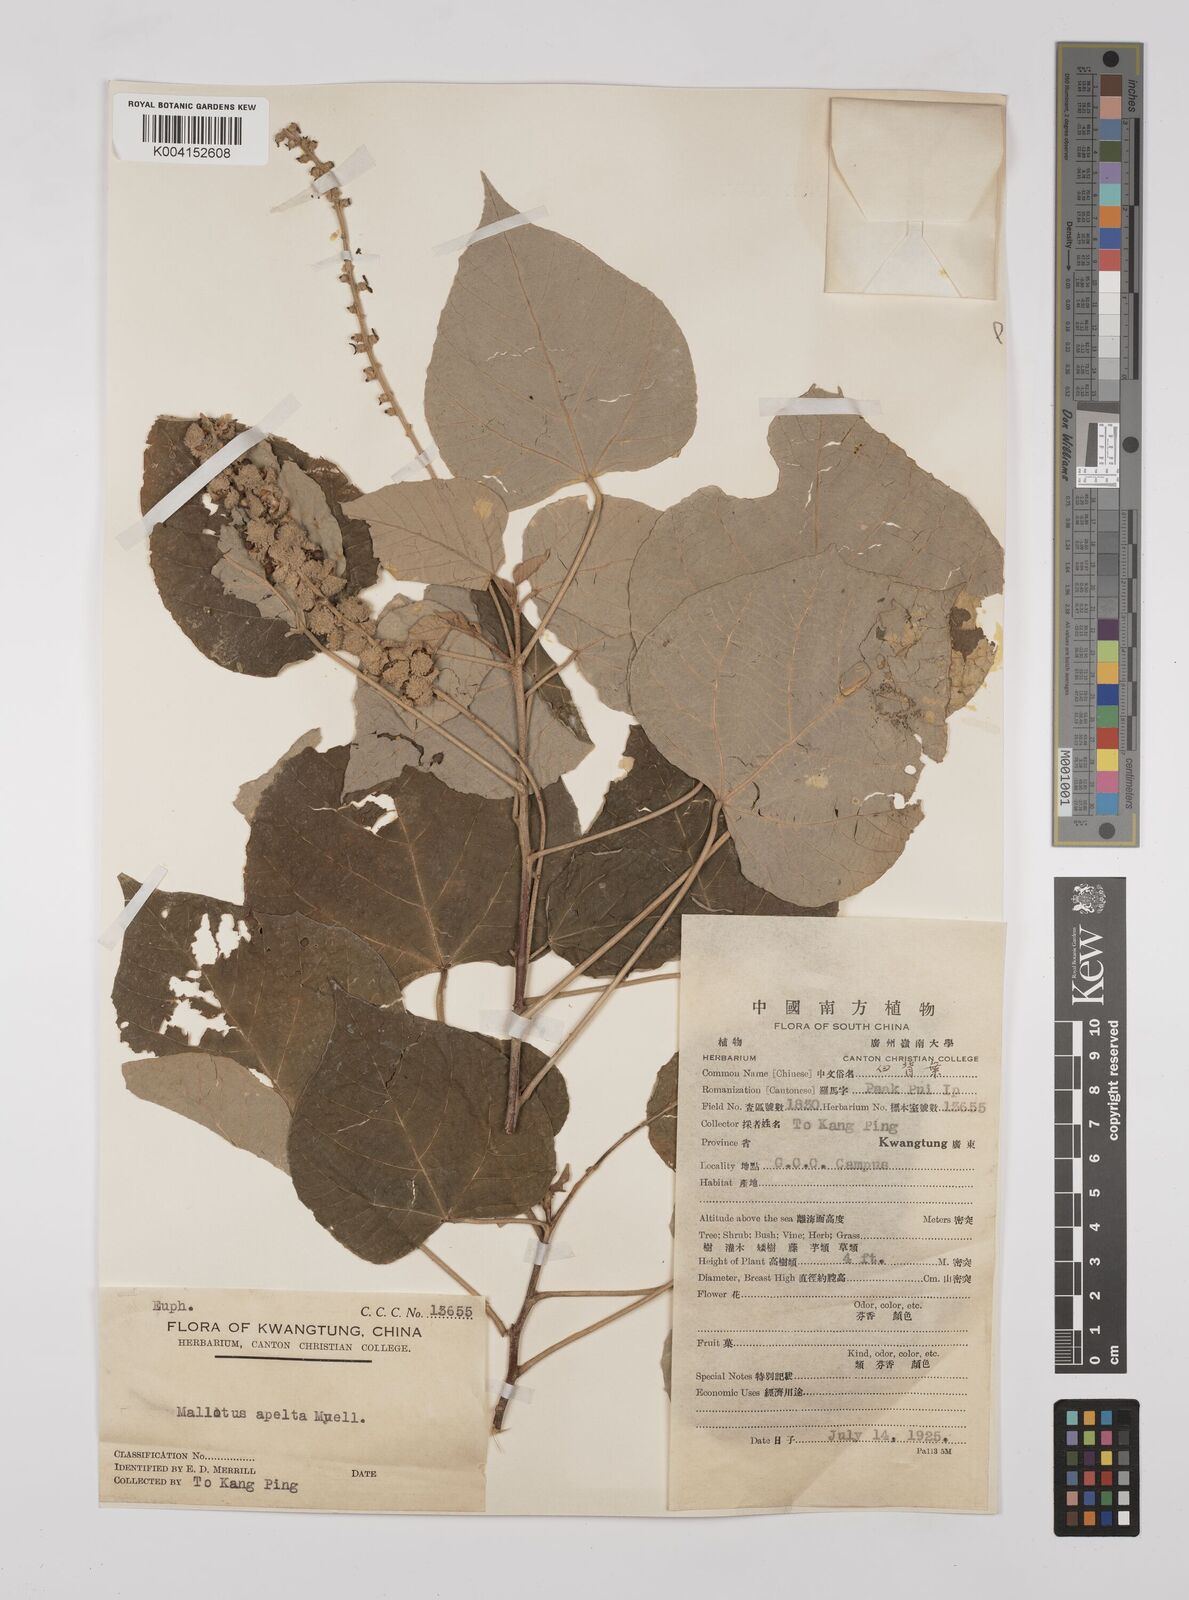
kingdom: Plantae
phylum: Tracheophyta
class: Magnoliopsida
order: Malpighiales
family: Euphorbiaceae
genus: Mallotus
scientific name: Mallotus apelta
